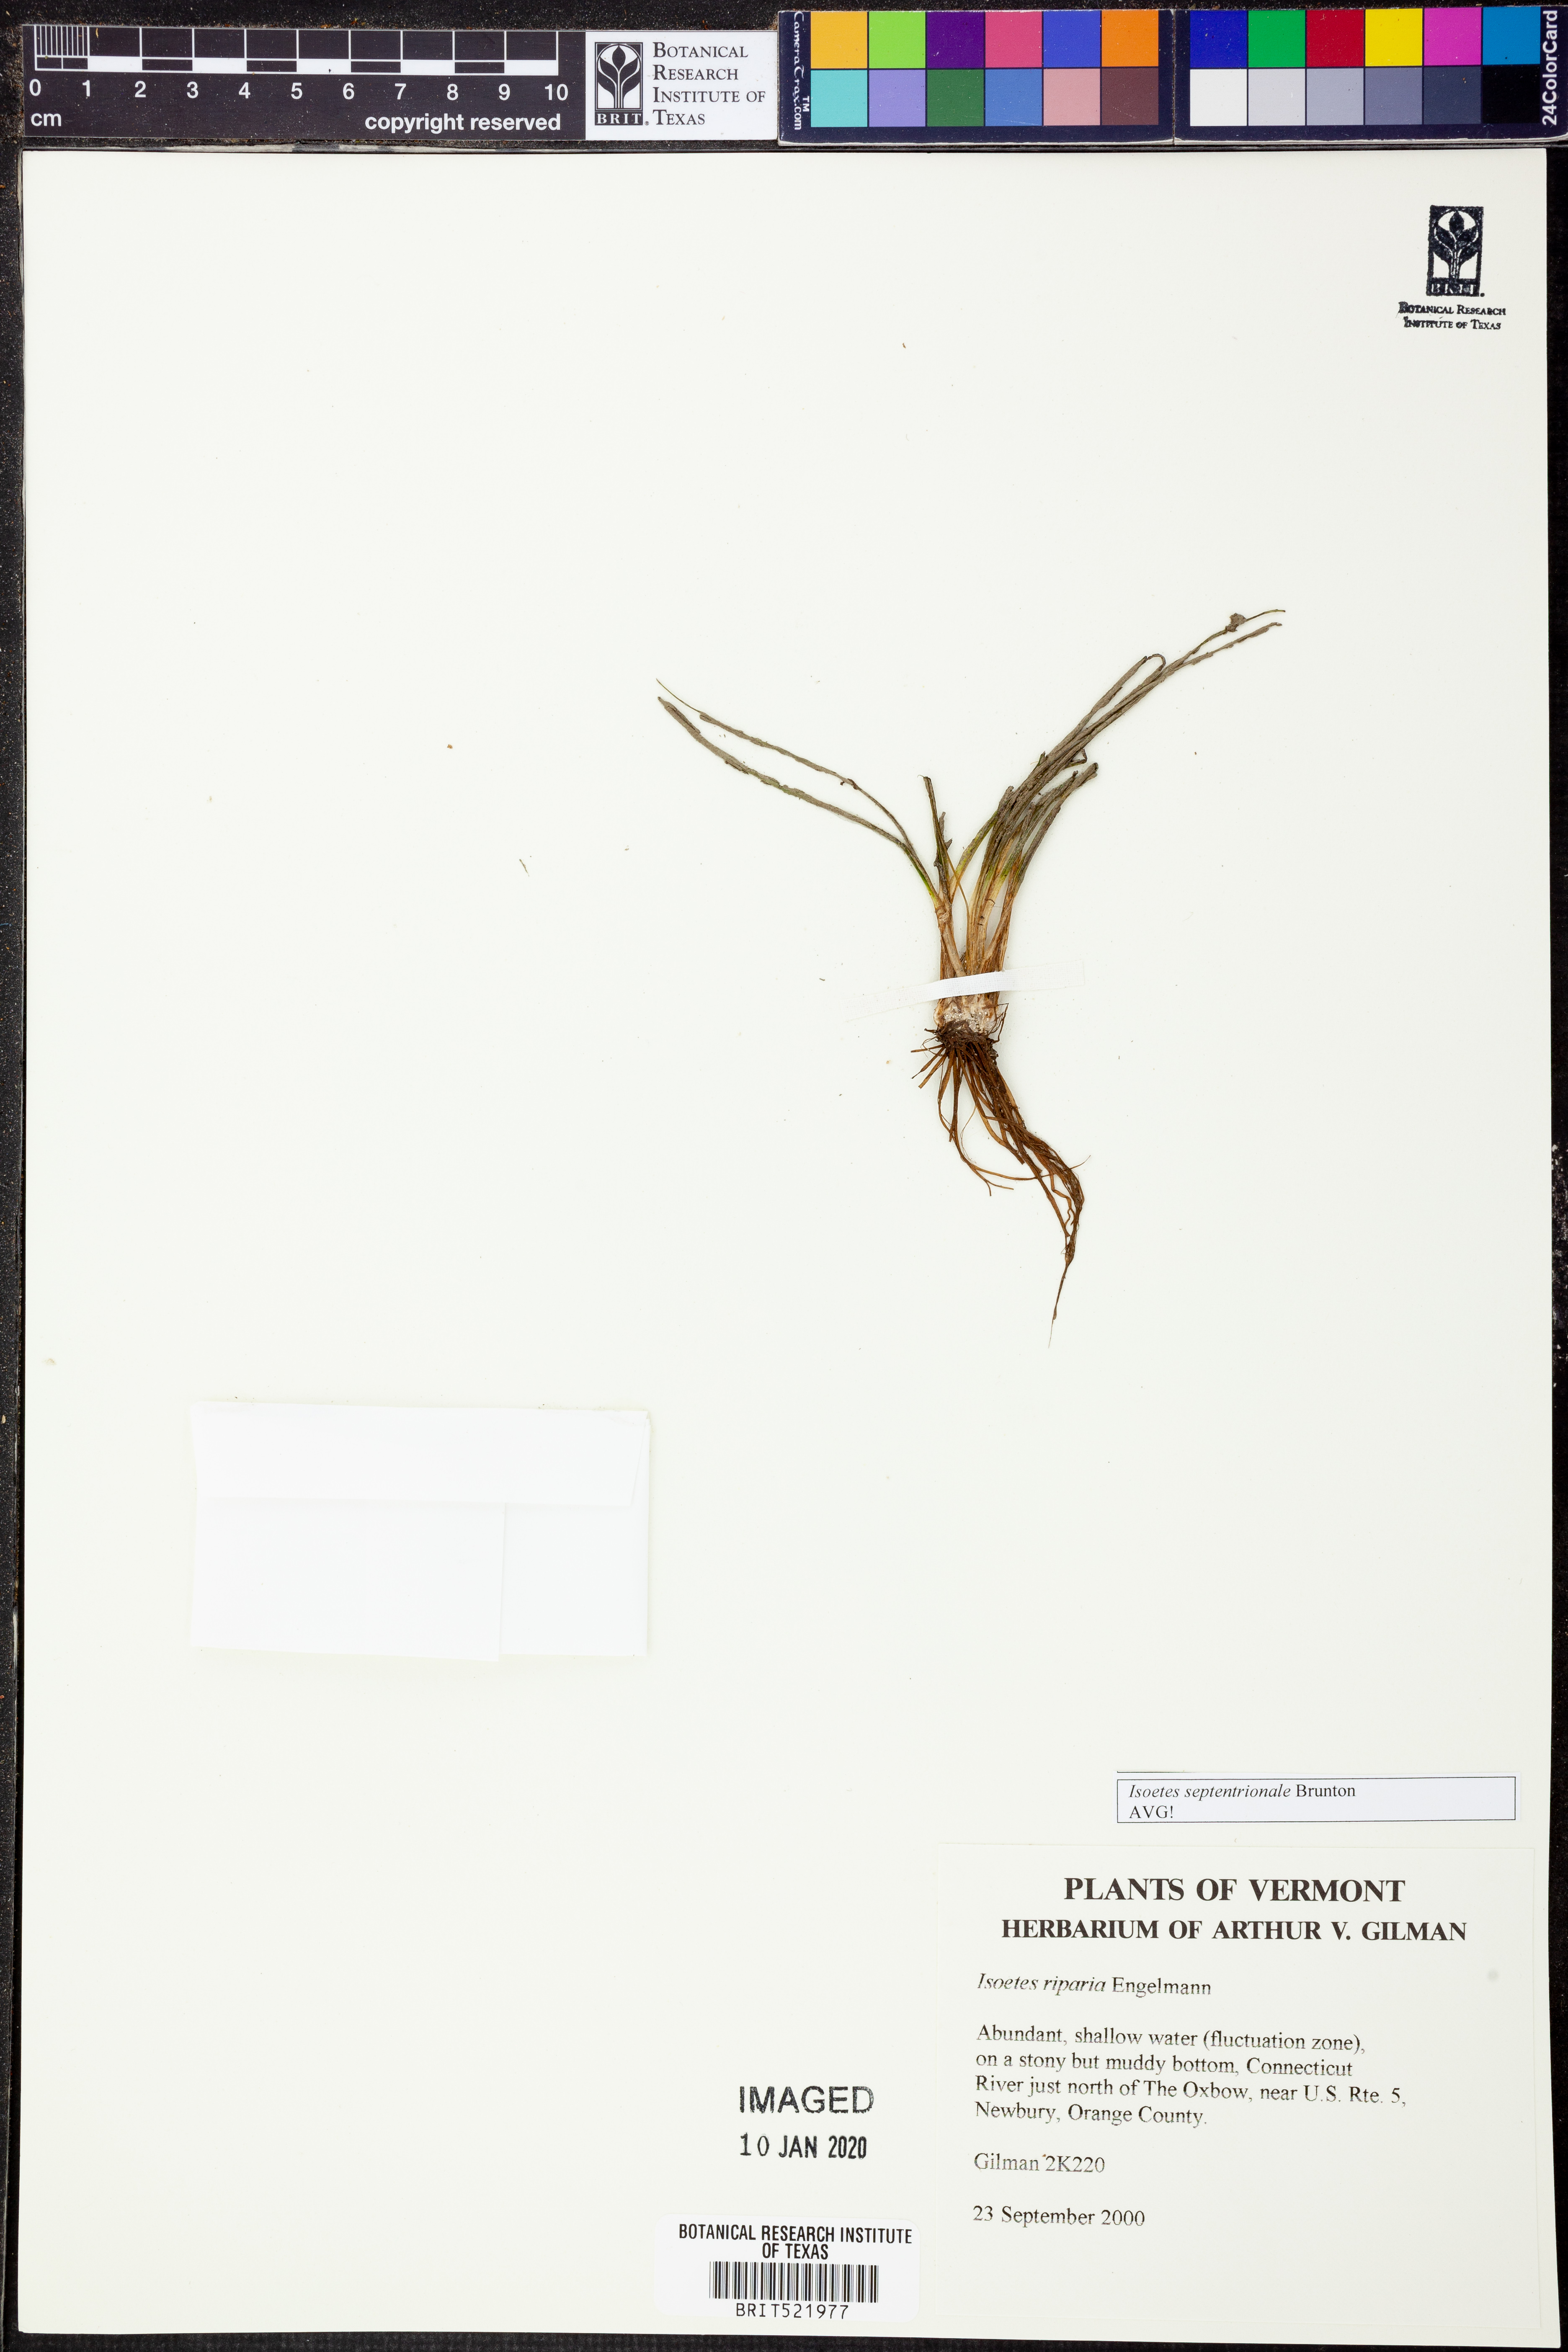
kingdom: Plantae
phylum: Tracheophyta
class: Lycopodiopsida
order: Isoetales
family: Isoetaceae
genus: Isoetes
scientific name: Isoetes septentrionalis
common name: Northern quillwort
